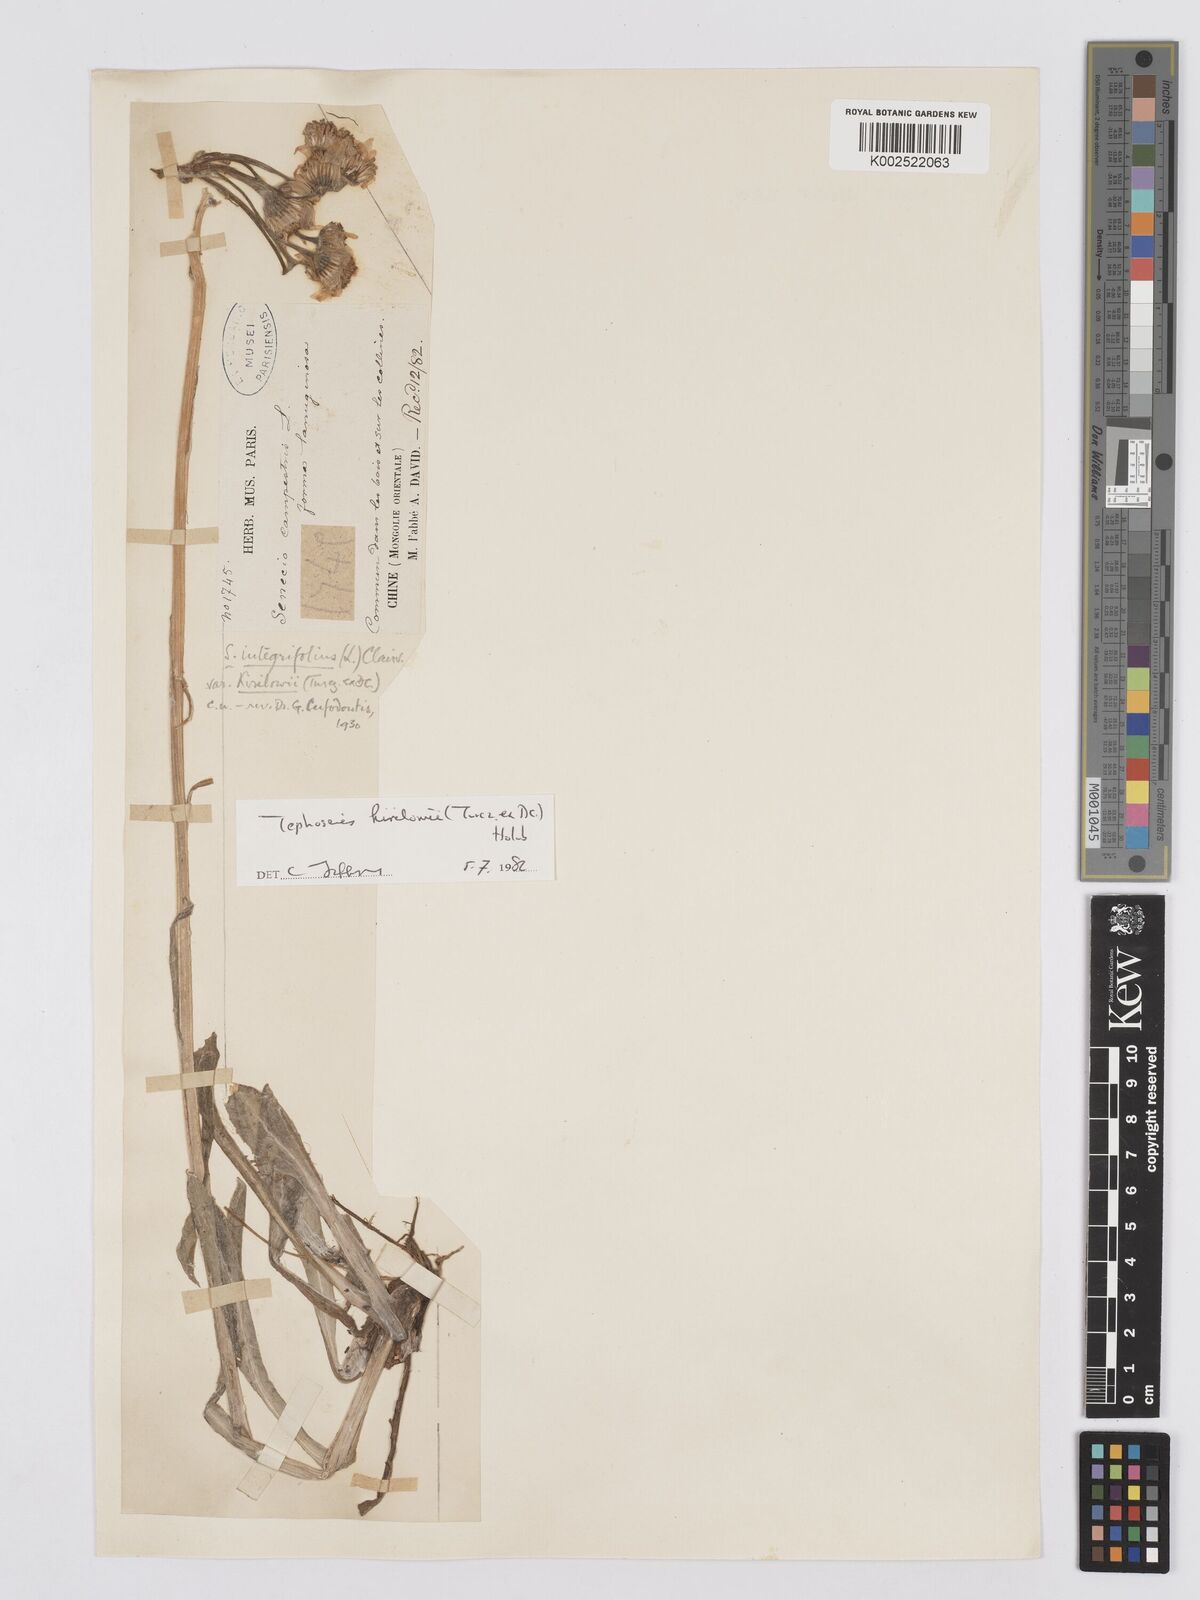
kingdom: Plantae
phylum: Tracheophyta
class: Magnoliopsida
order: Asterales
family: Asteraceae
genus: Tephroseris
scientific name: Tephroseris kirilowii
